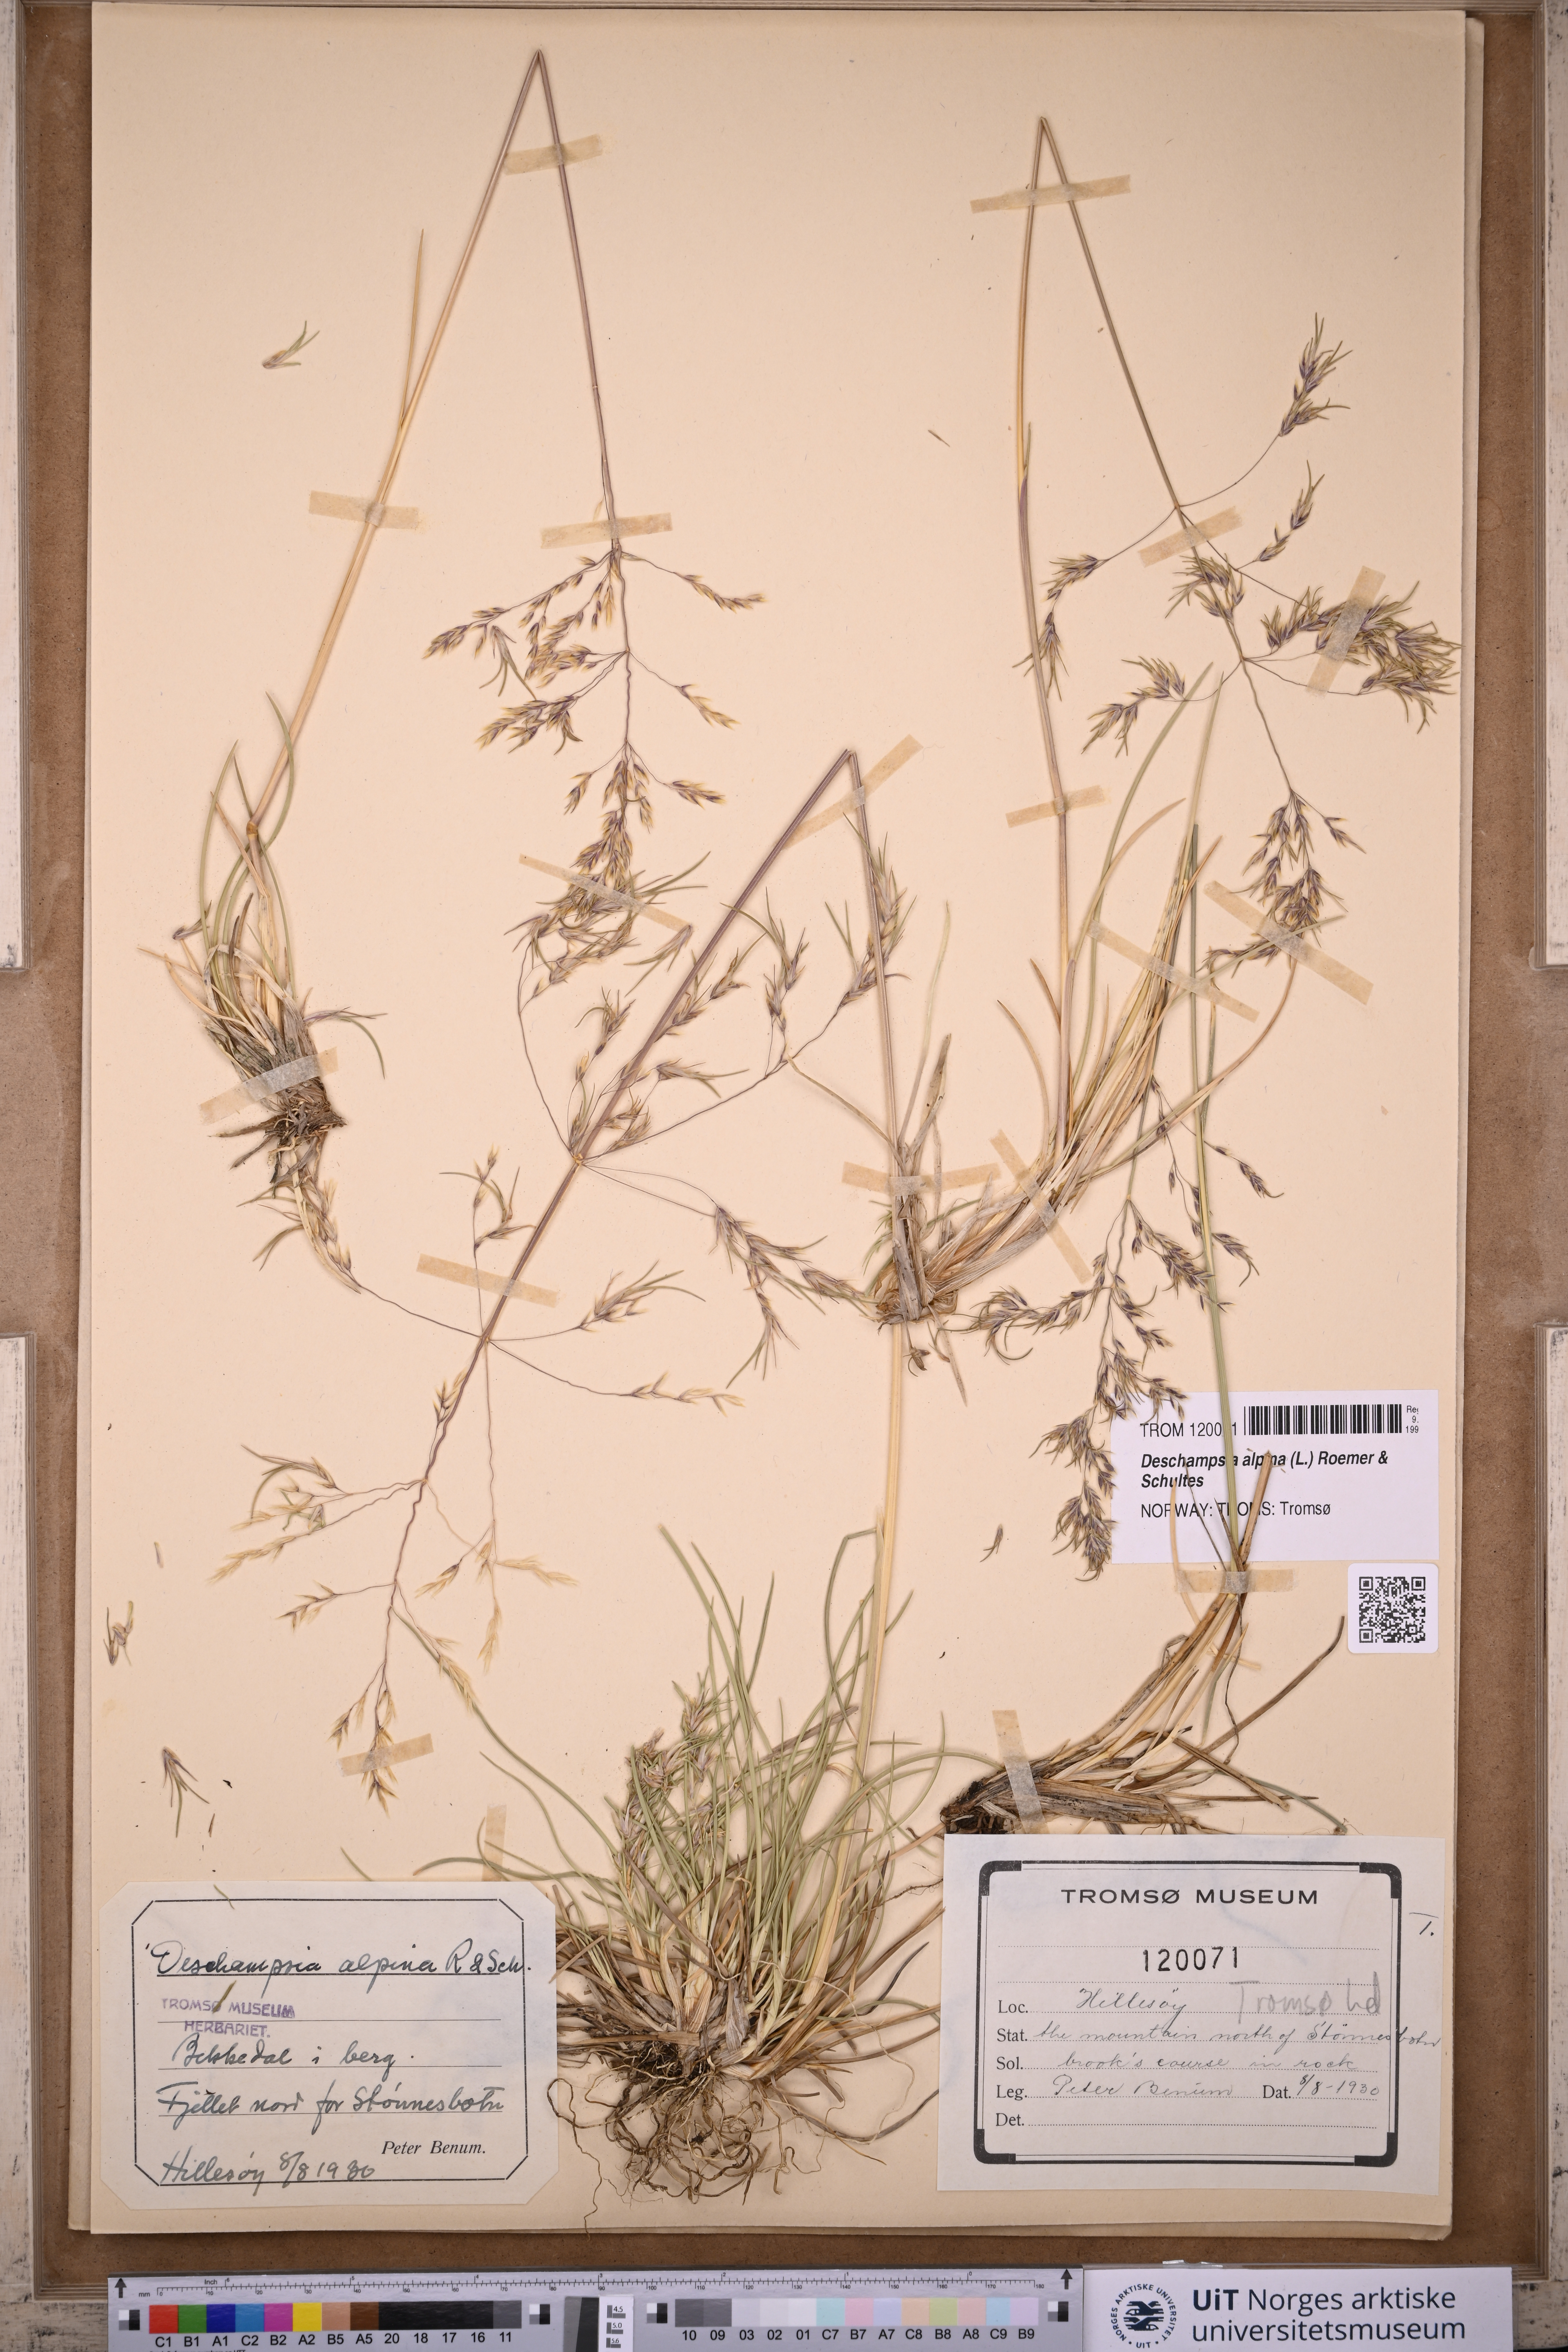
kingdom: Plantae
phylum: Tracheophyta
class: Liliopsida
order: Poales
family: Poaceae
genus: Deschampsia
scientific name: Deschampsia cespitosa
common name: Tufted hair-grass
